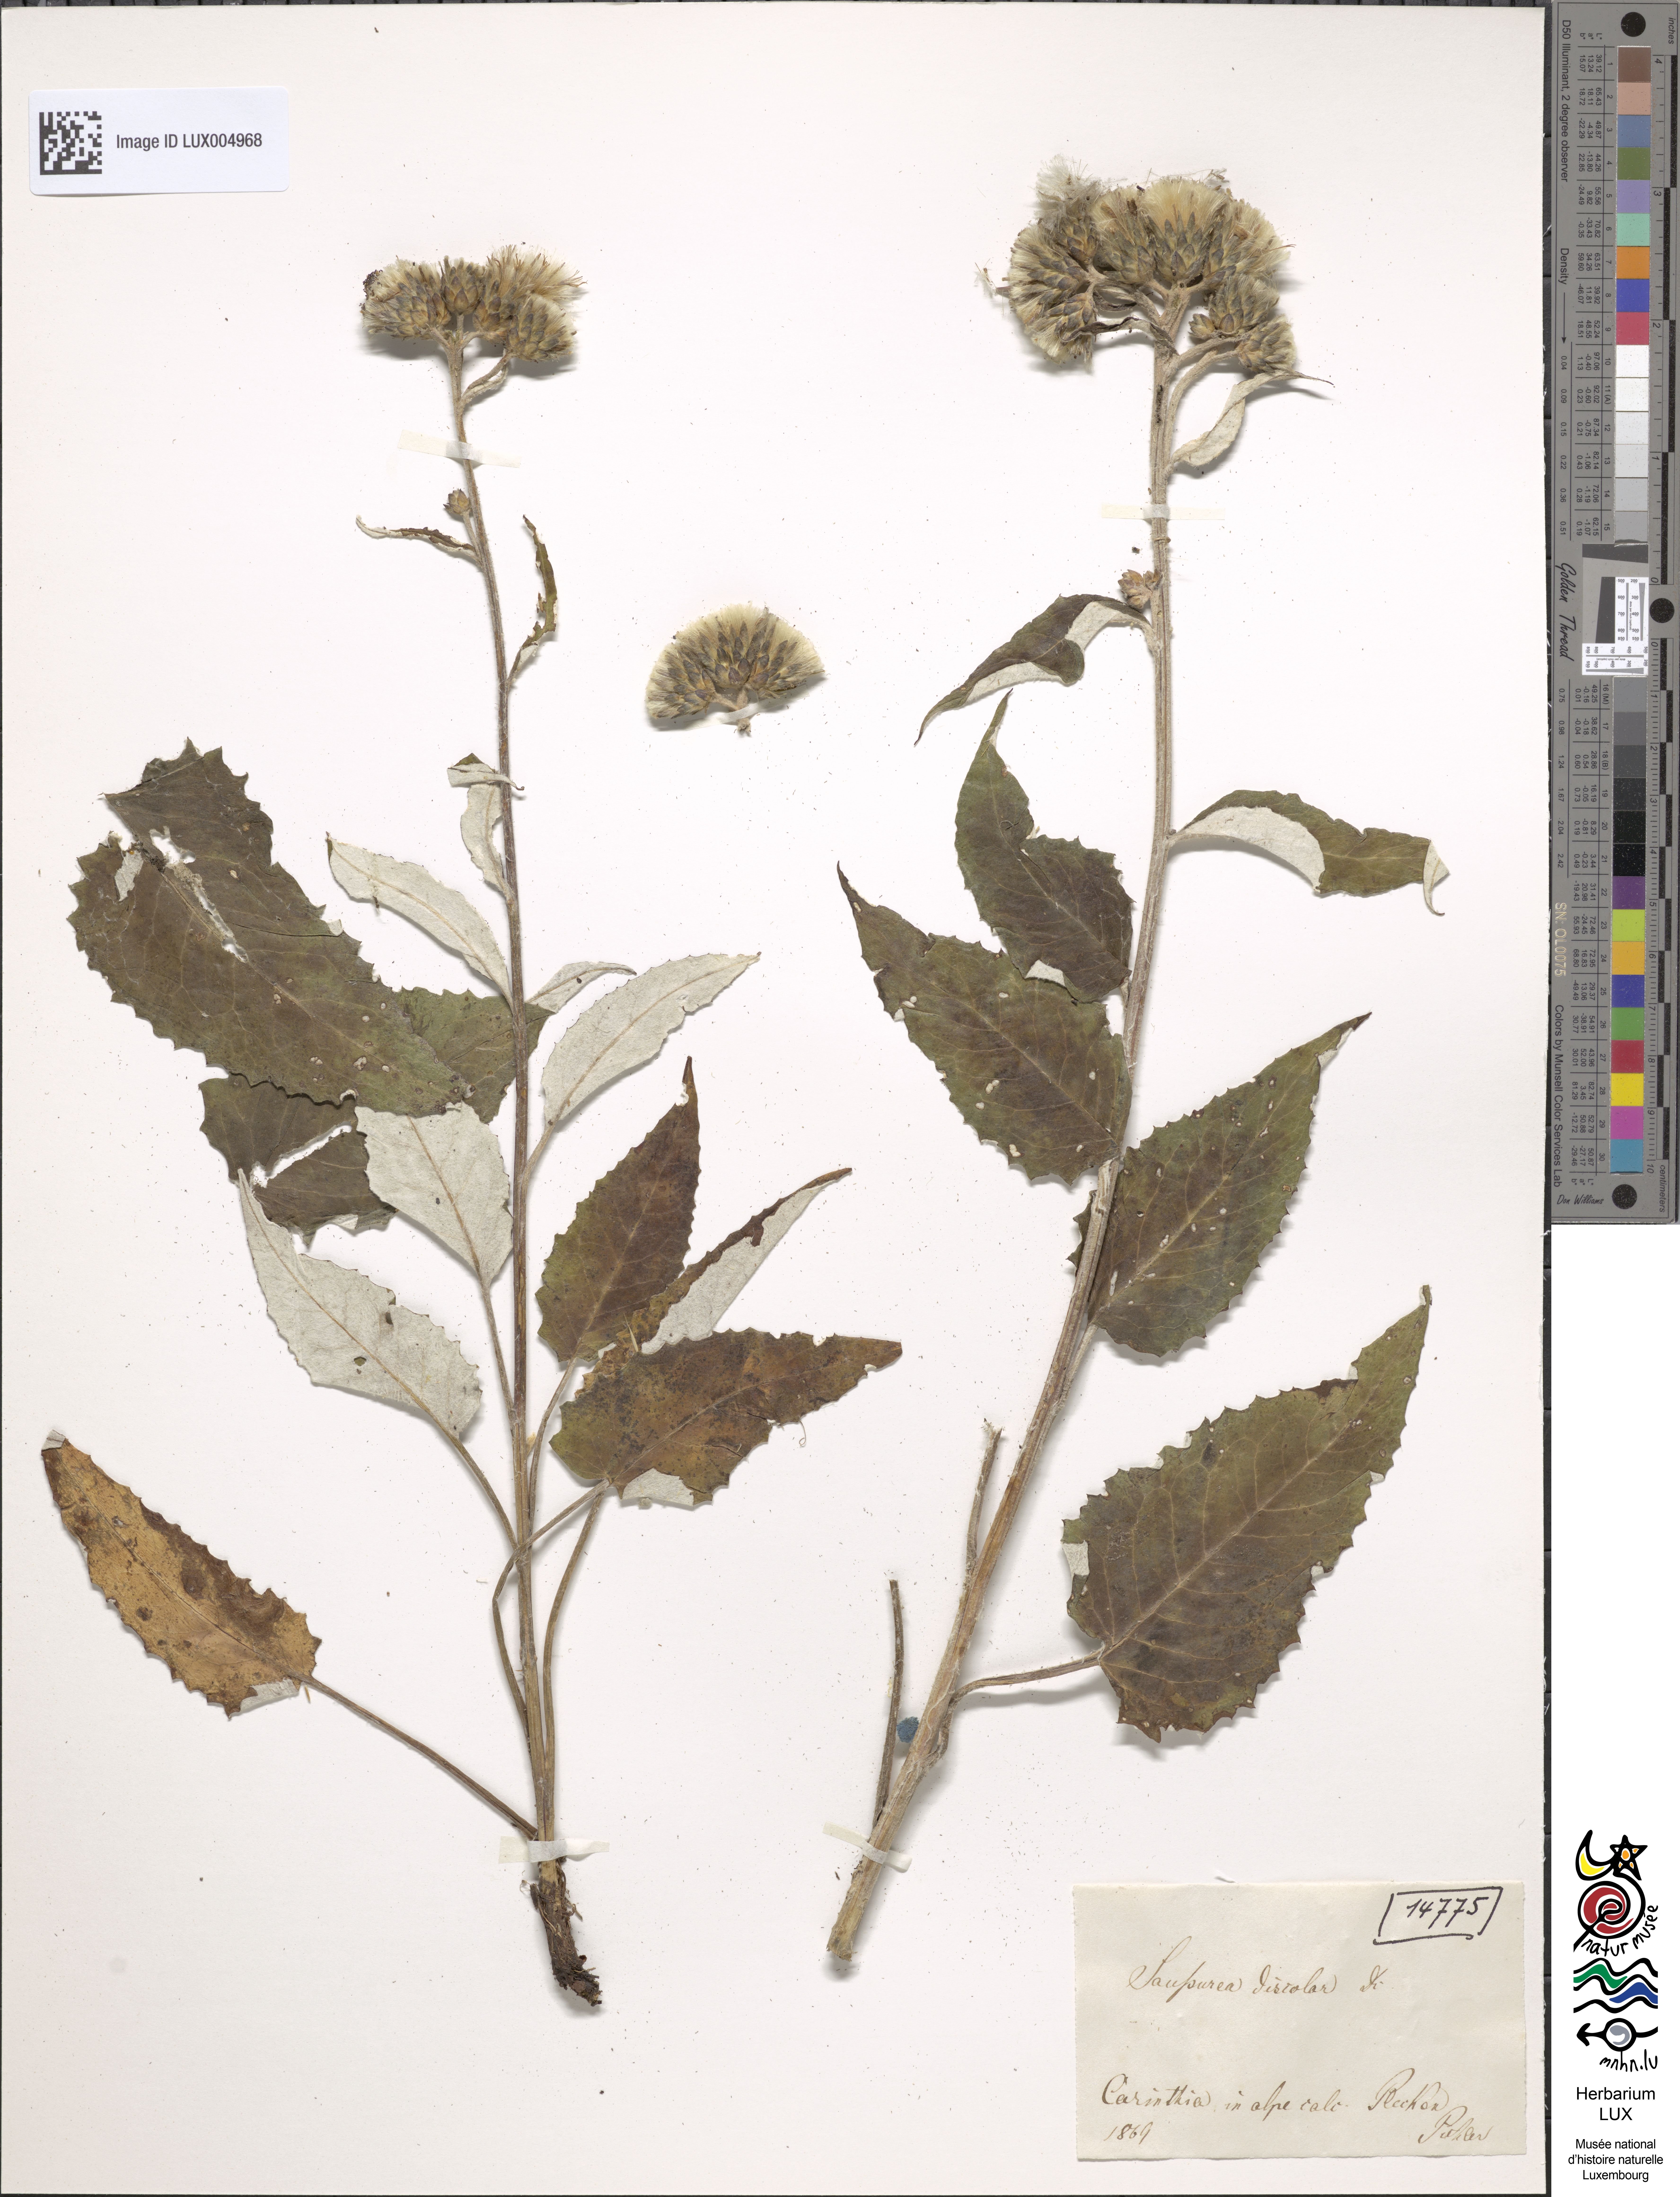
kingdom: Plantae
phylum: Tracheophyta
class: Magnoliopsida
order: Asterales
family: Asteraceae
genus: Saussurea
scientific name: Saussurea discolor
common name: Heart-leaved saussurea
